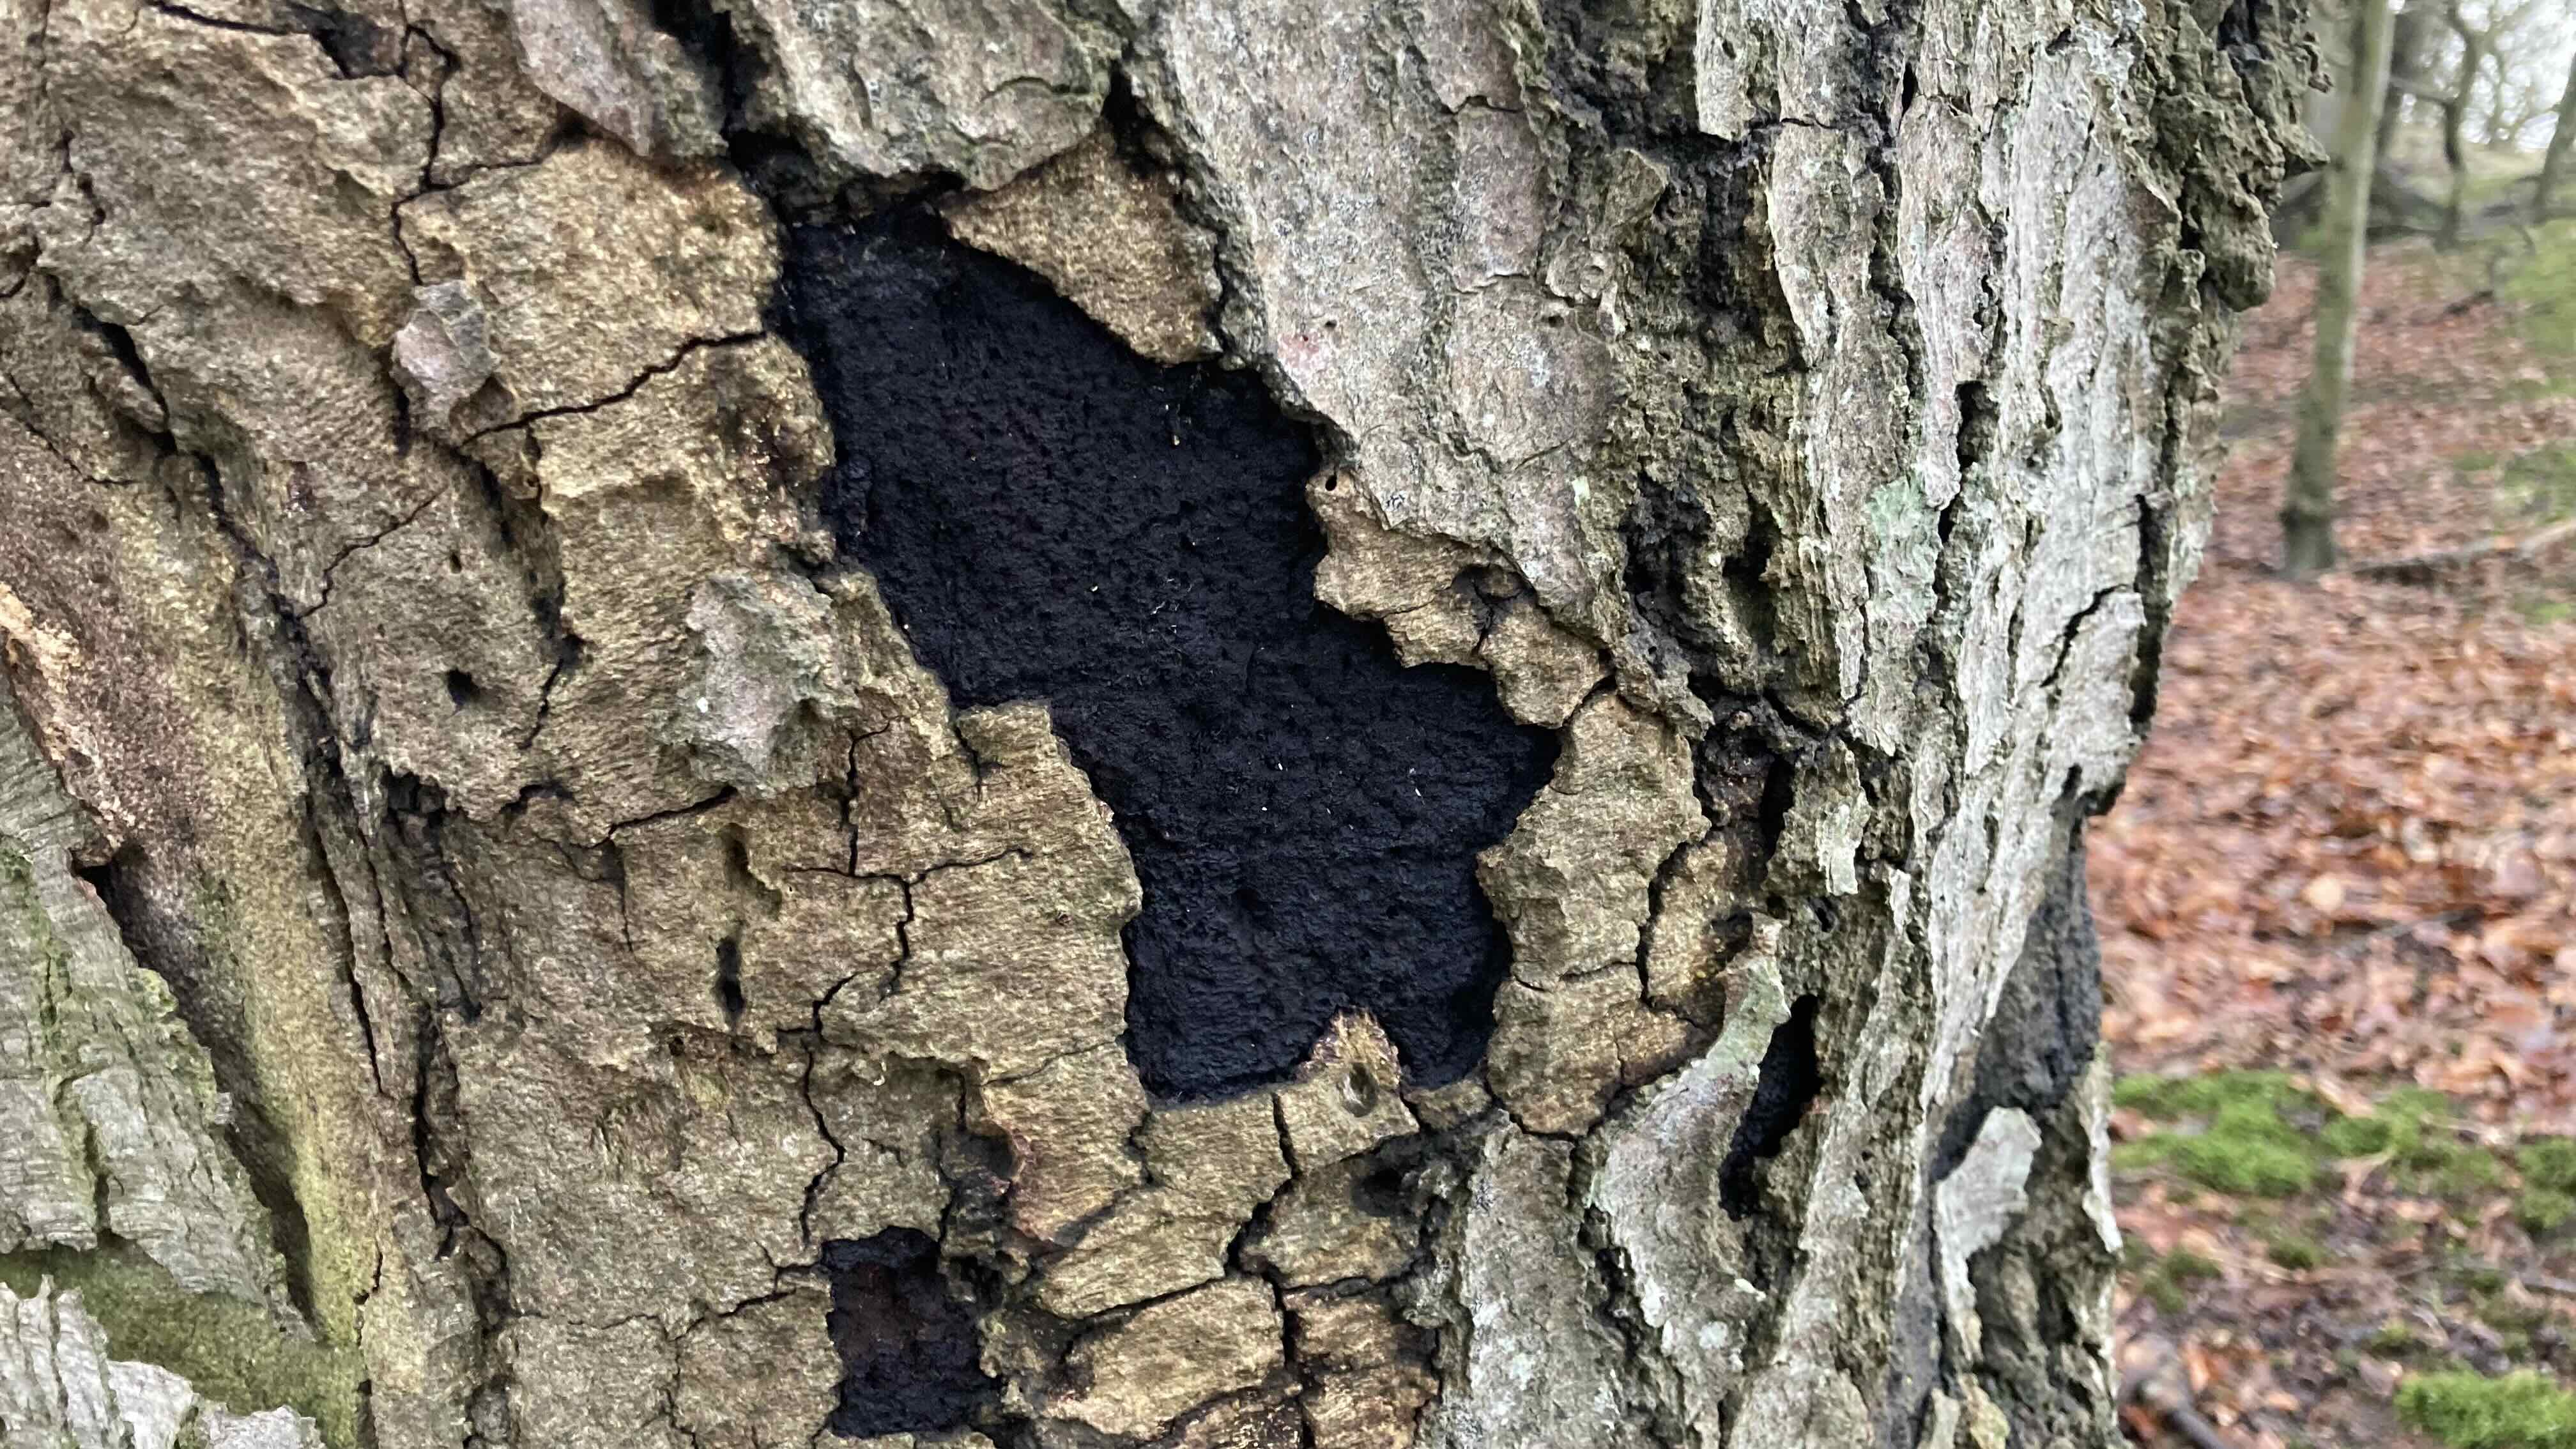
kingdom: Fungi
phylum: Ascomycota
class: Sordariomycetes
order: Xylariales
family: Diatrypaceae
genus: Eutypa
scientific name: Eutypa spinosa
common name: grov kulskorpe
